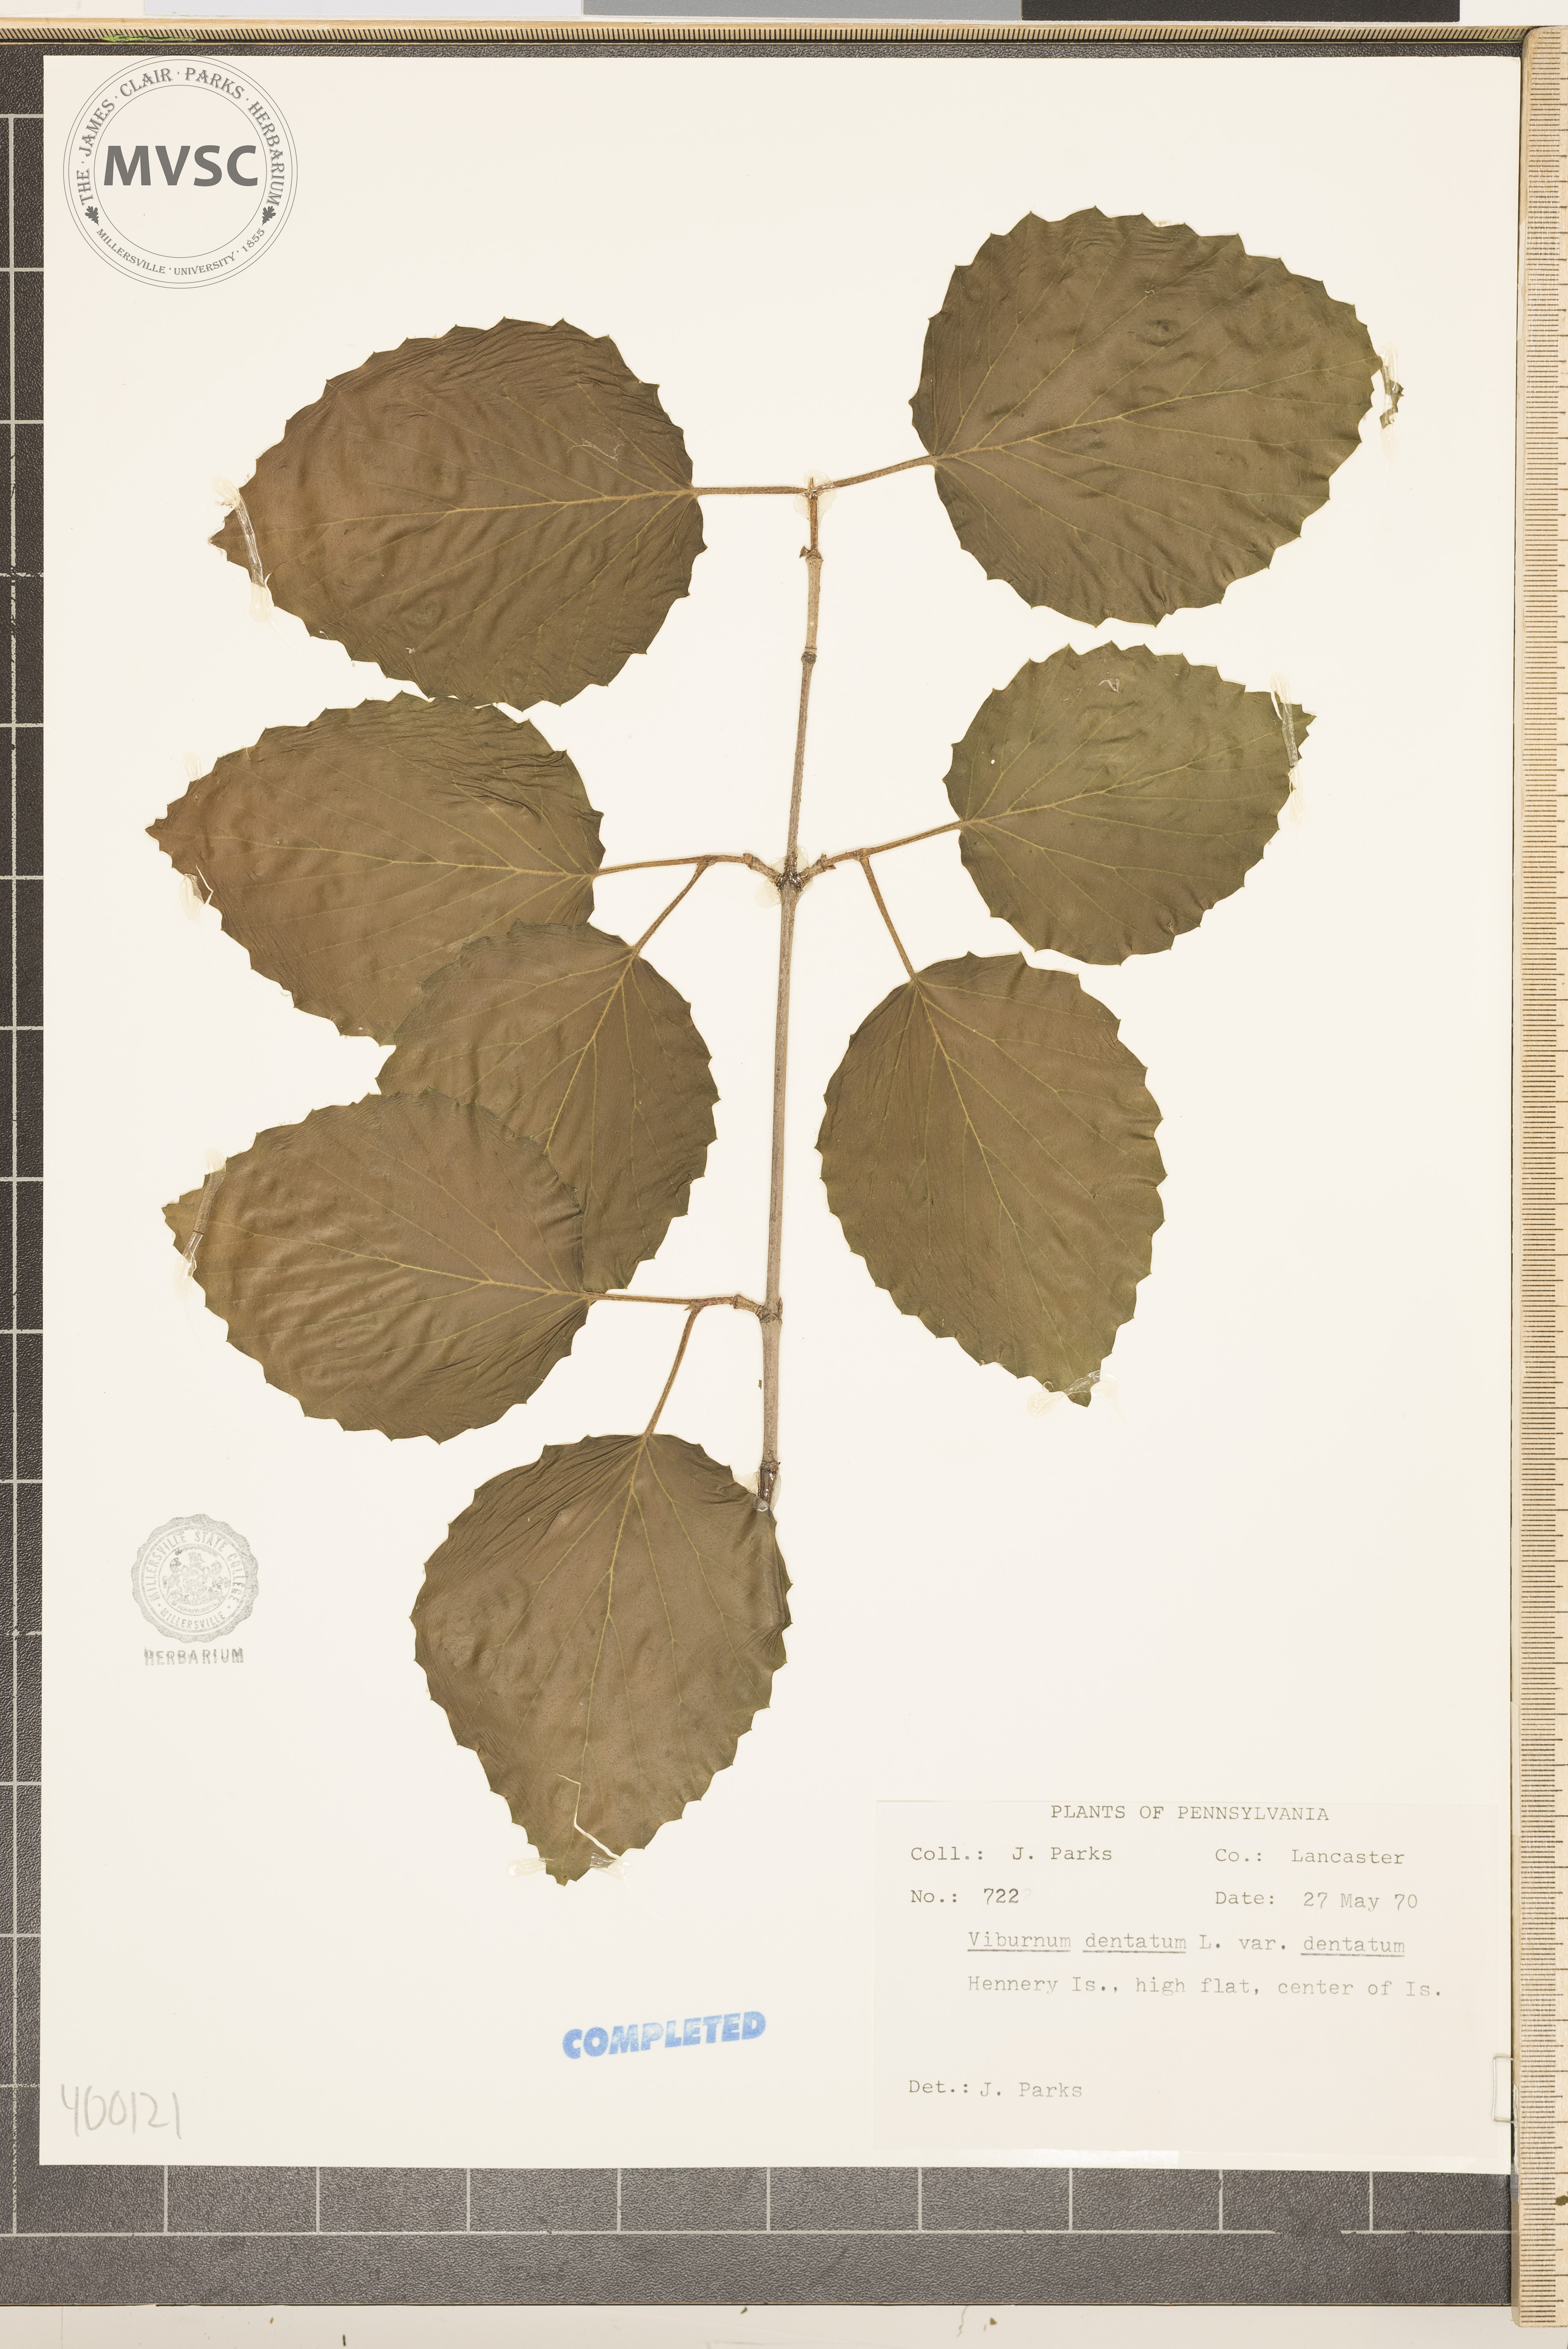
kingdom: Plantae
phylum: Tracheophyta
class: Magnoliopsida
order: Dipsacales
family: Viburnaceae
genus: Viburnum
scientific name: Viburnum dentatum
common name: viburnum
